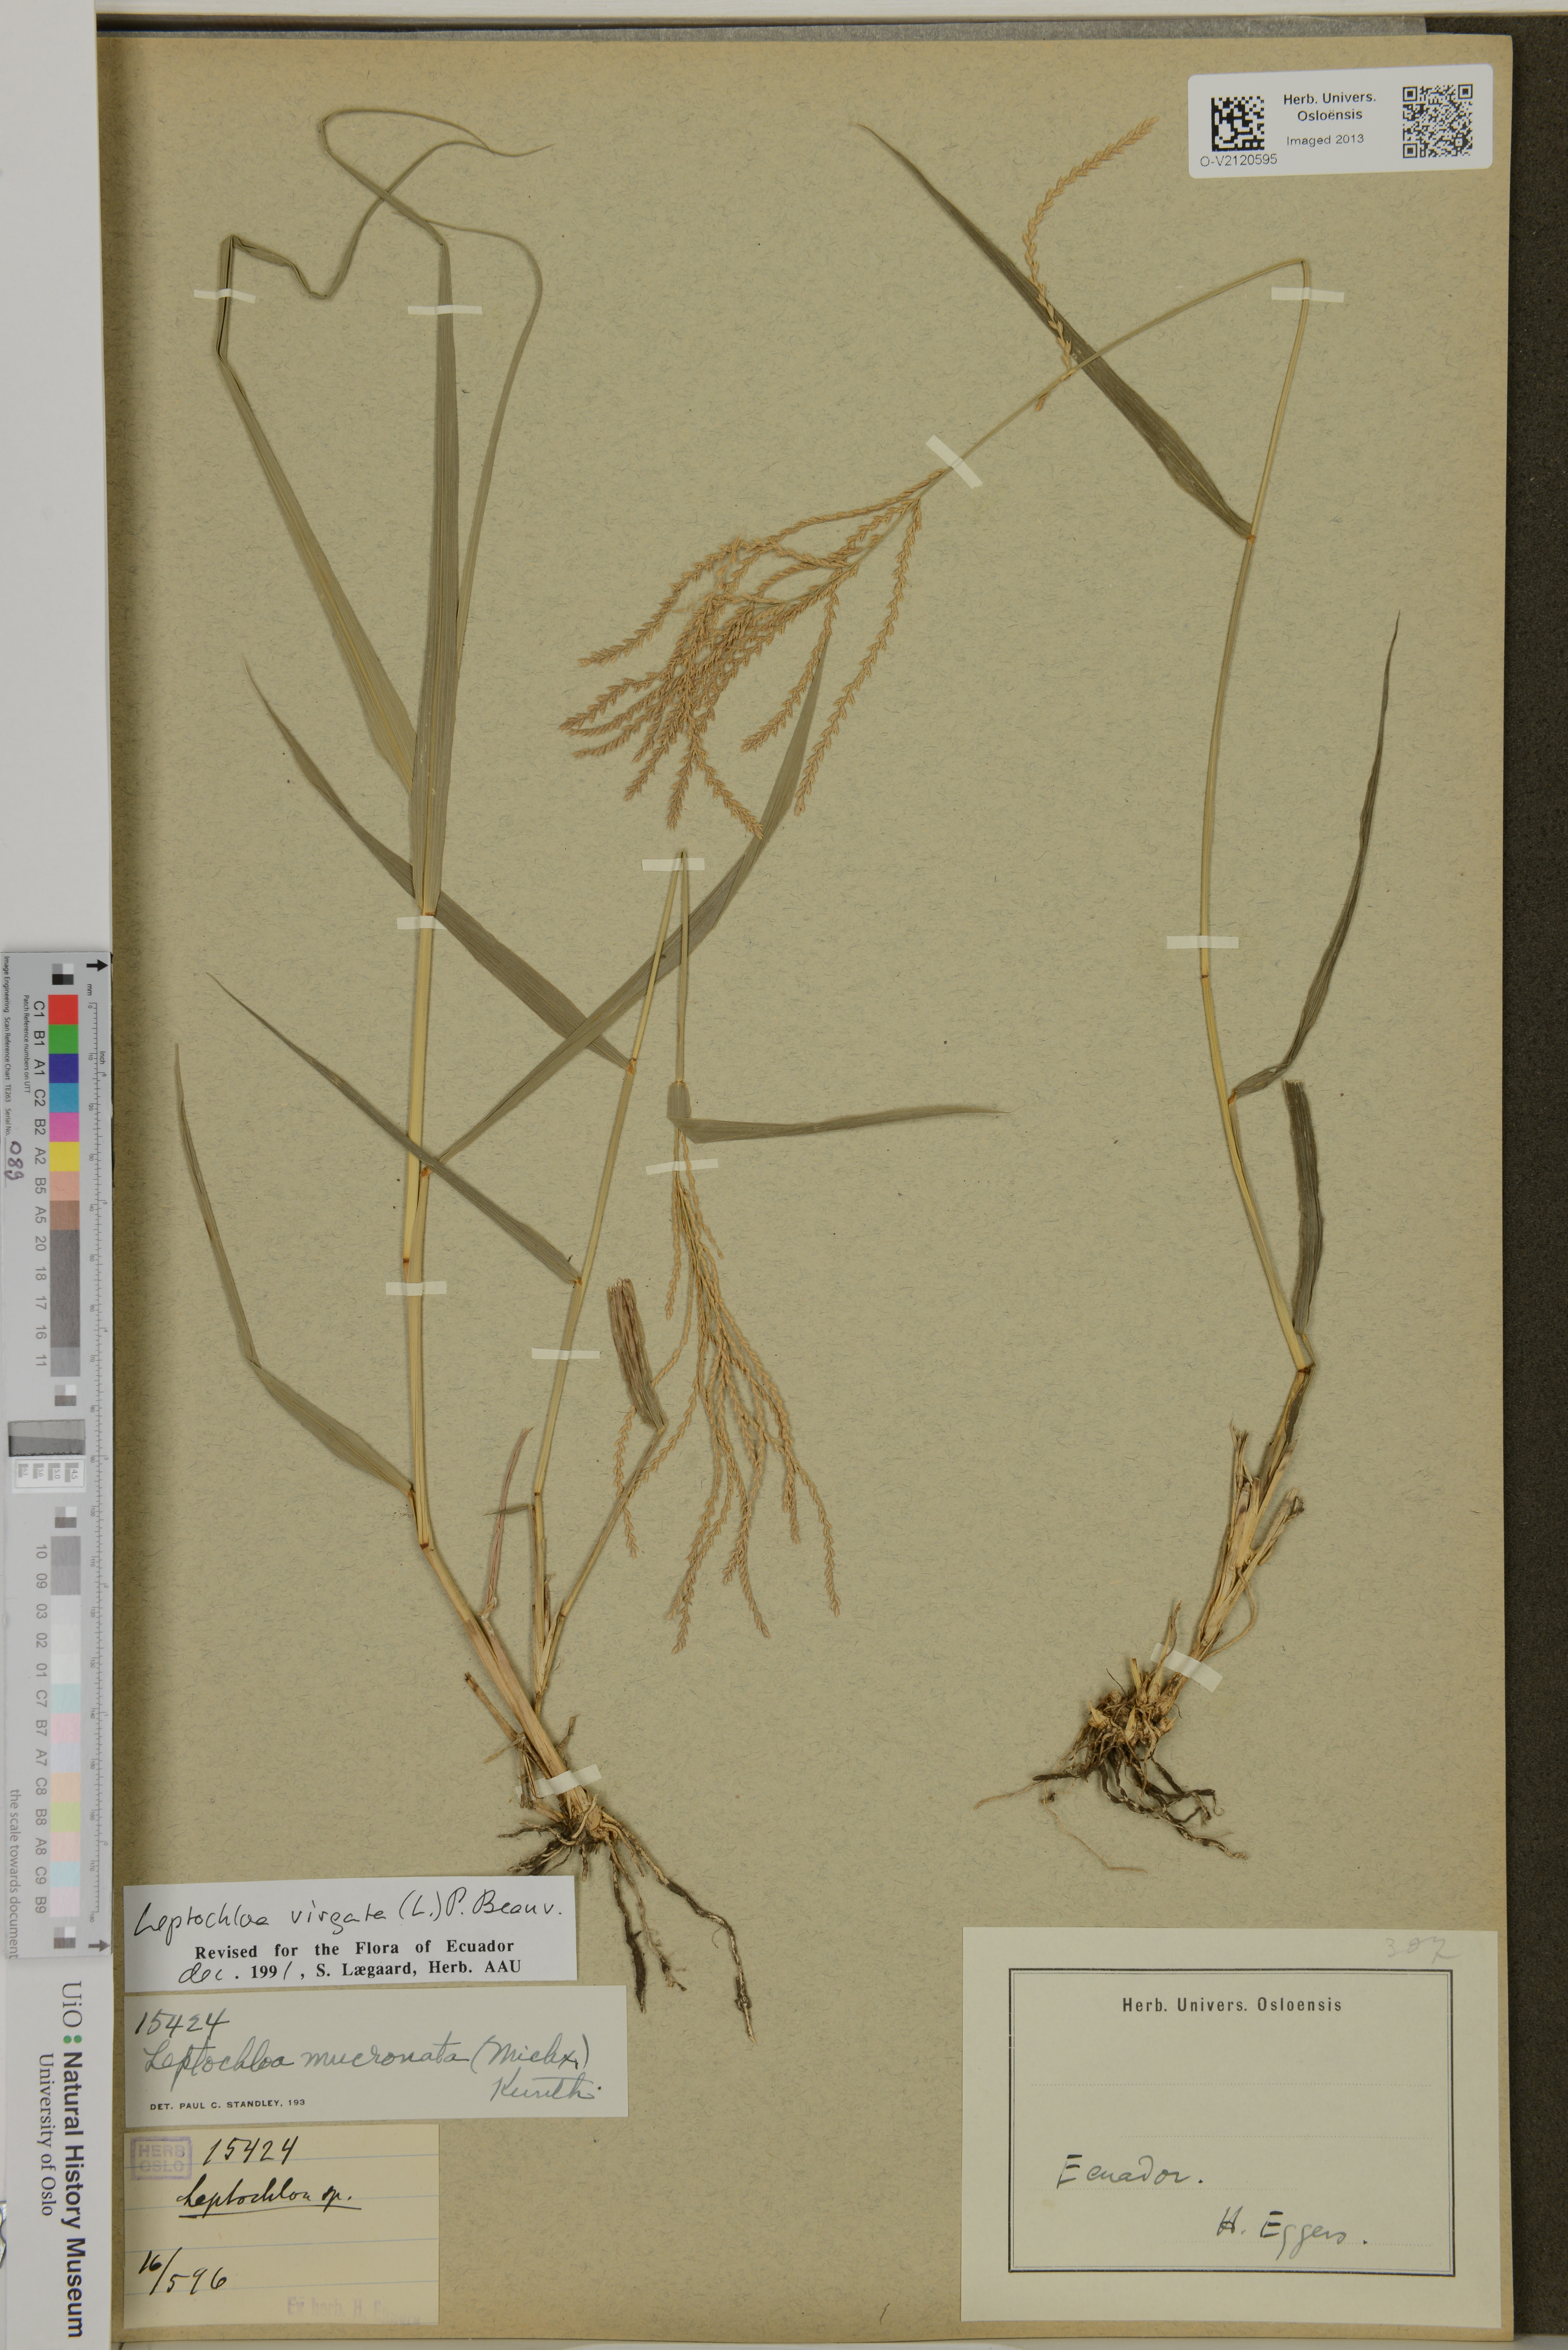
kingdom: Plantae
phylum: Tracheophyta
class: Liliopsida
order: Poales
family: Poaceae
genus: Leptochloa
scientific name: Leptochloa mucronata
